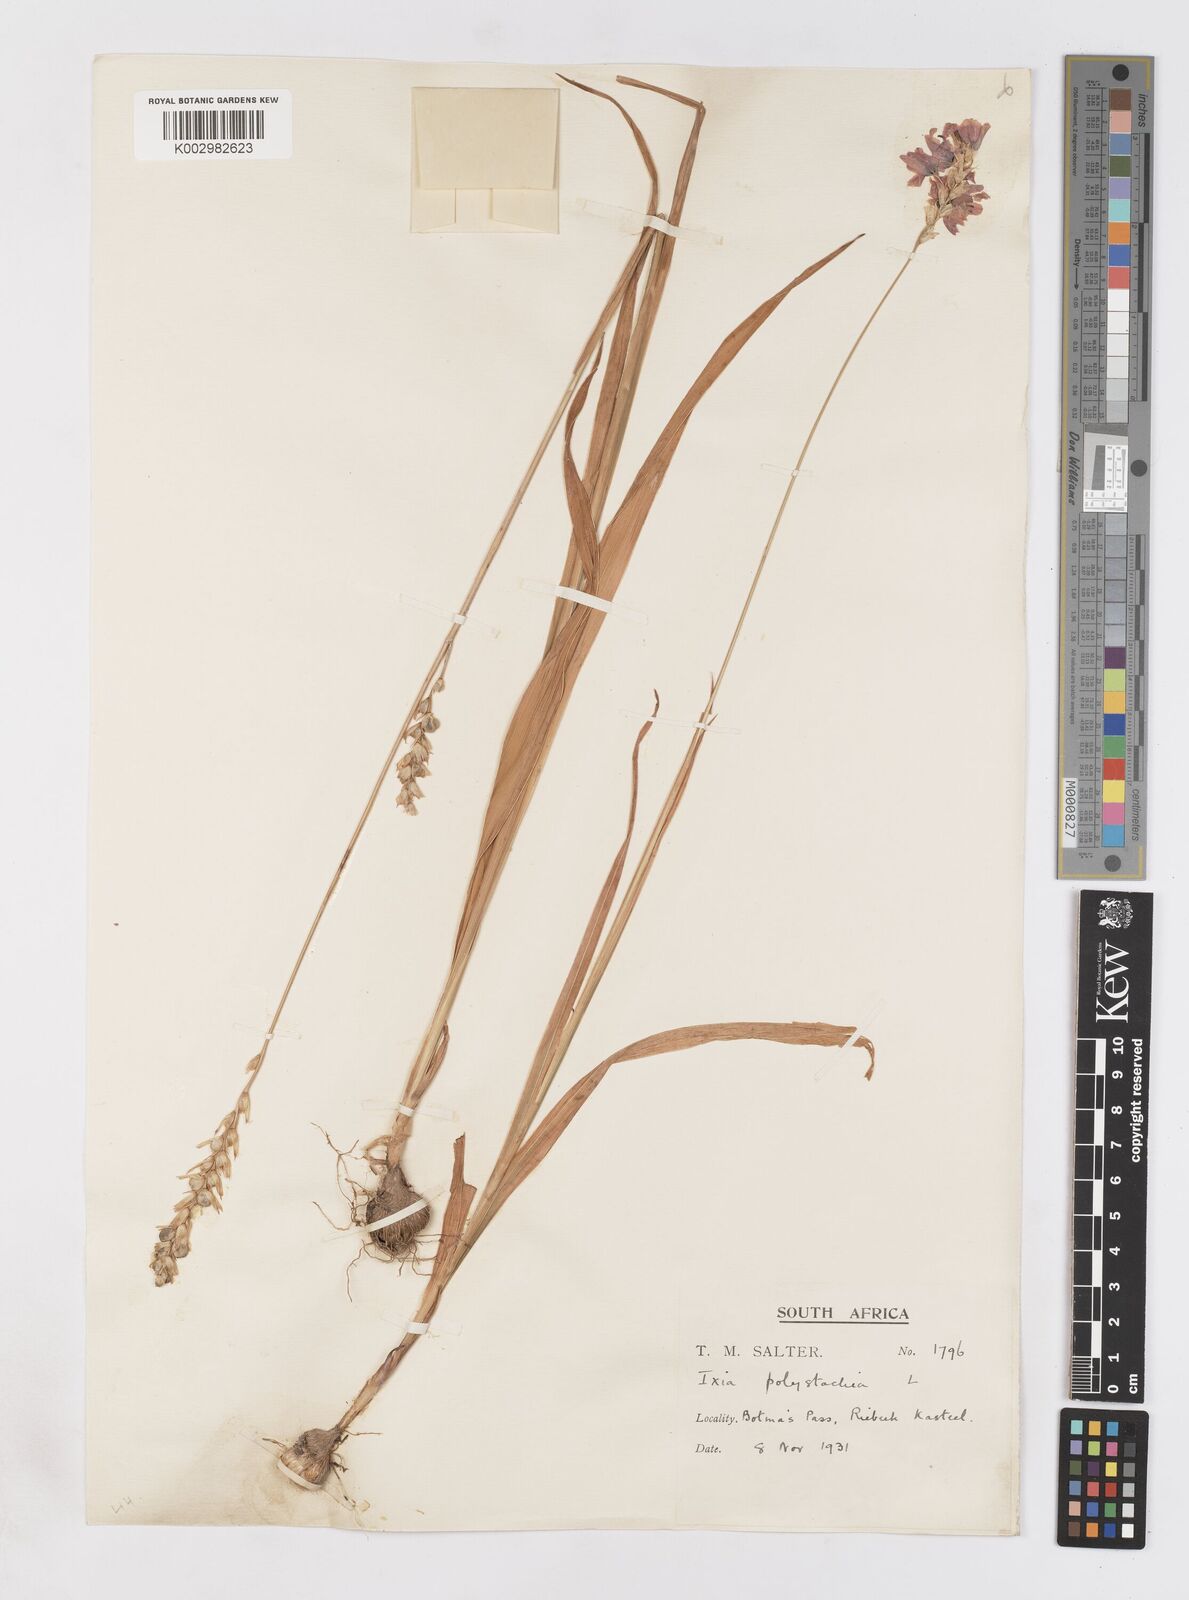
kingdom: Plantae
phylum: Tracheophyta
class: Liliopsida
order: Asparagales
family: Iridaceae
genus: Ixia
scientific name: Ixia polystachya
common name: White-and-yellow-flower cornlily
